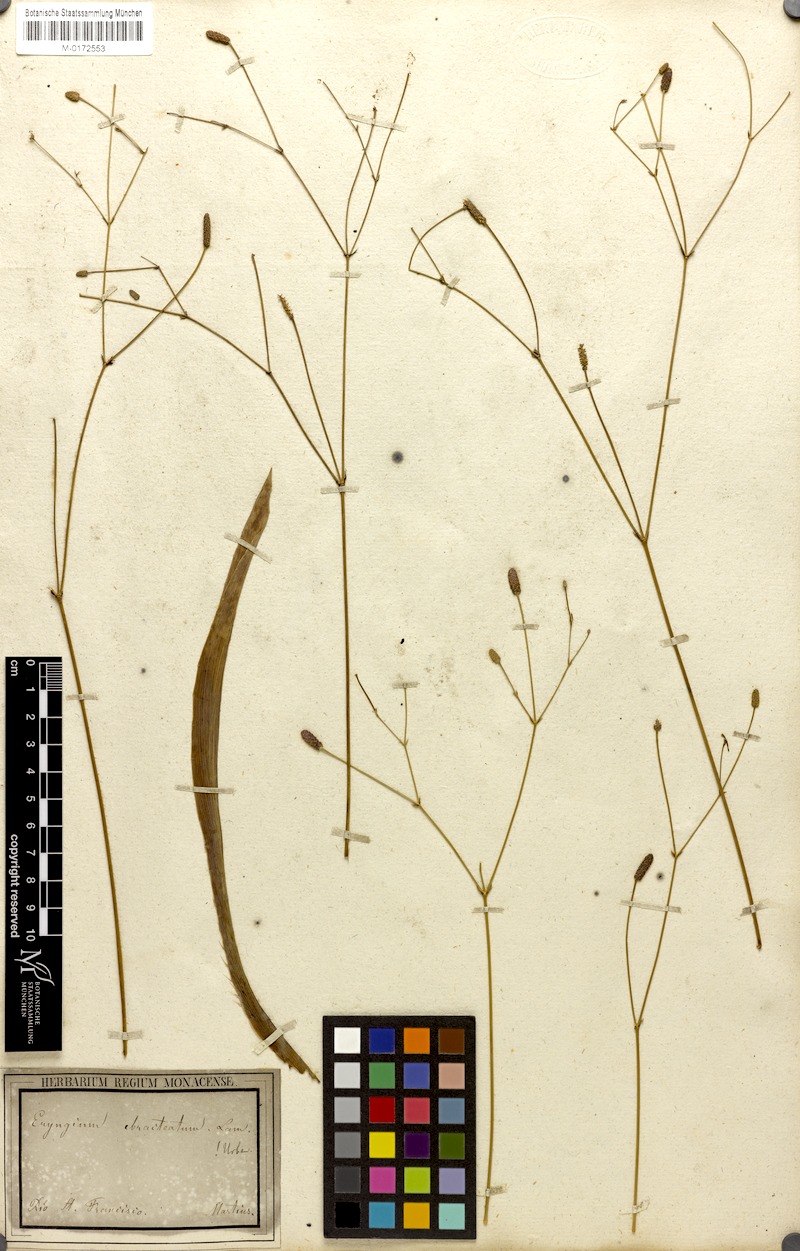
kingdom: Plantae
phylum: Tracheophyta
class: Magnoliopsida
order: Apiales
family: Apiaceae
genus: Eryngium
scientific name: Eryngium ebracteatum
